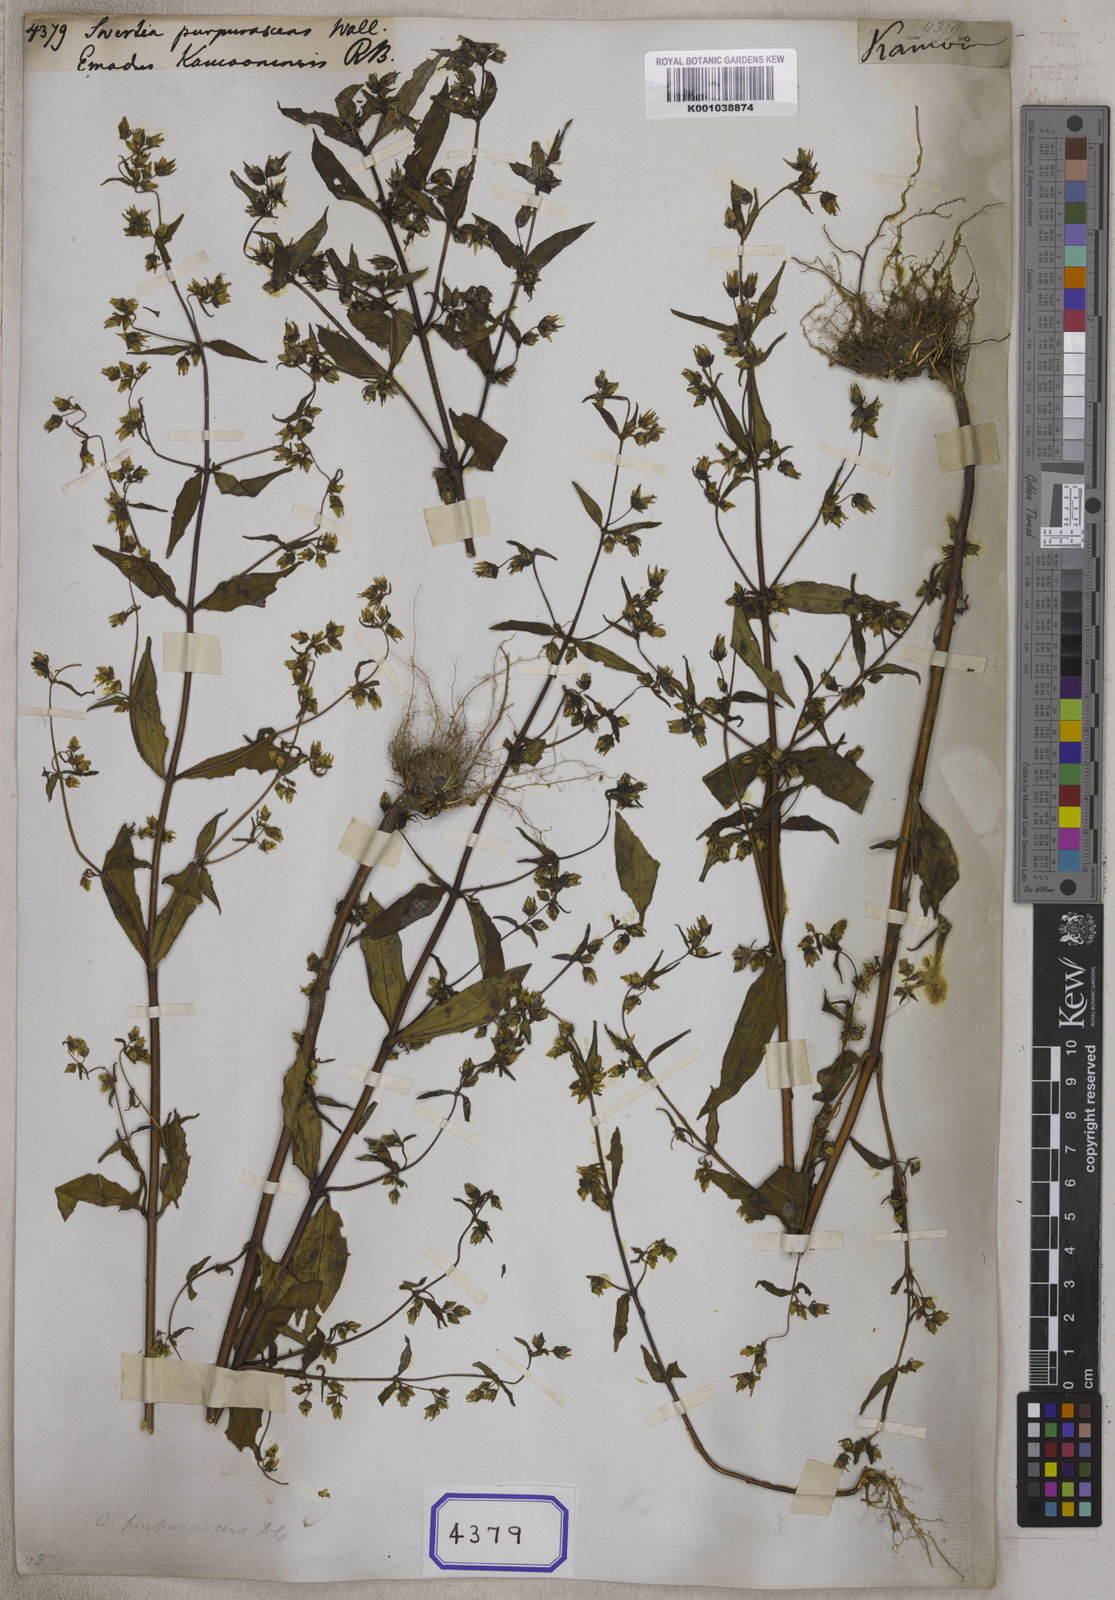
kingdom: Plantae
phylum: Tracheophyta
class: Magnoliopsida
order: Gentianales
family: Gentianaceae
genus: Swertia
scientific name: Swertia
